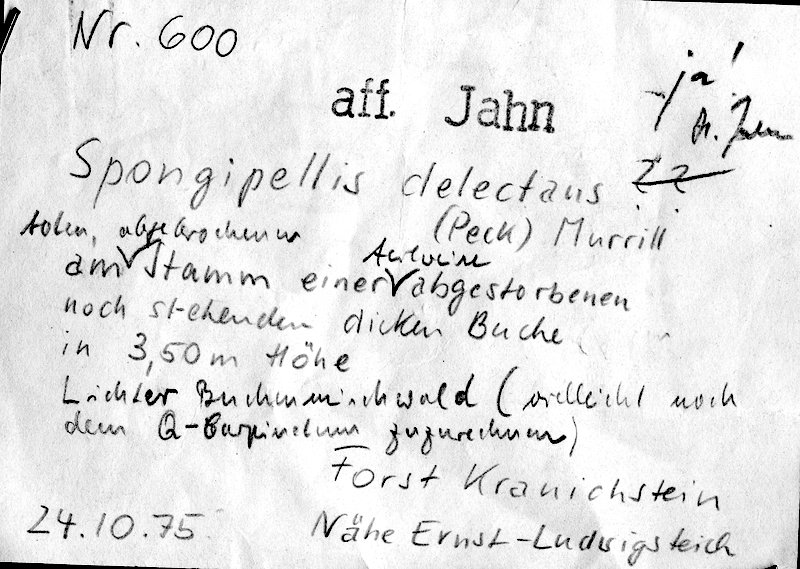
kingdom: Fungi
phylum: Basidiomycota
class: Agaricomycetes
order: Polyporales
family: Cerrenaceae
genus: Pseudospongipellis
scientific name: Pseudospongipellis delectans
